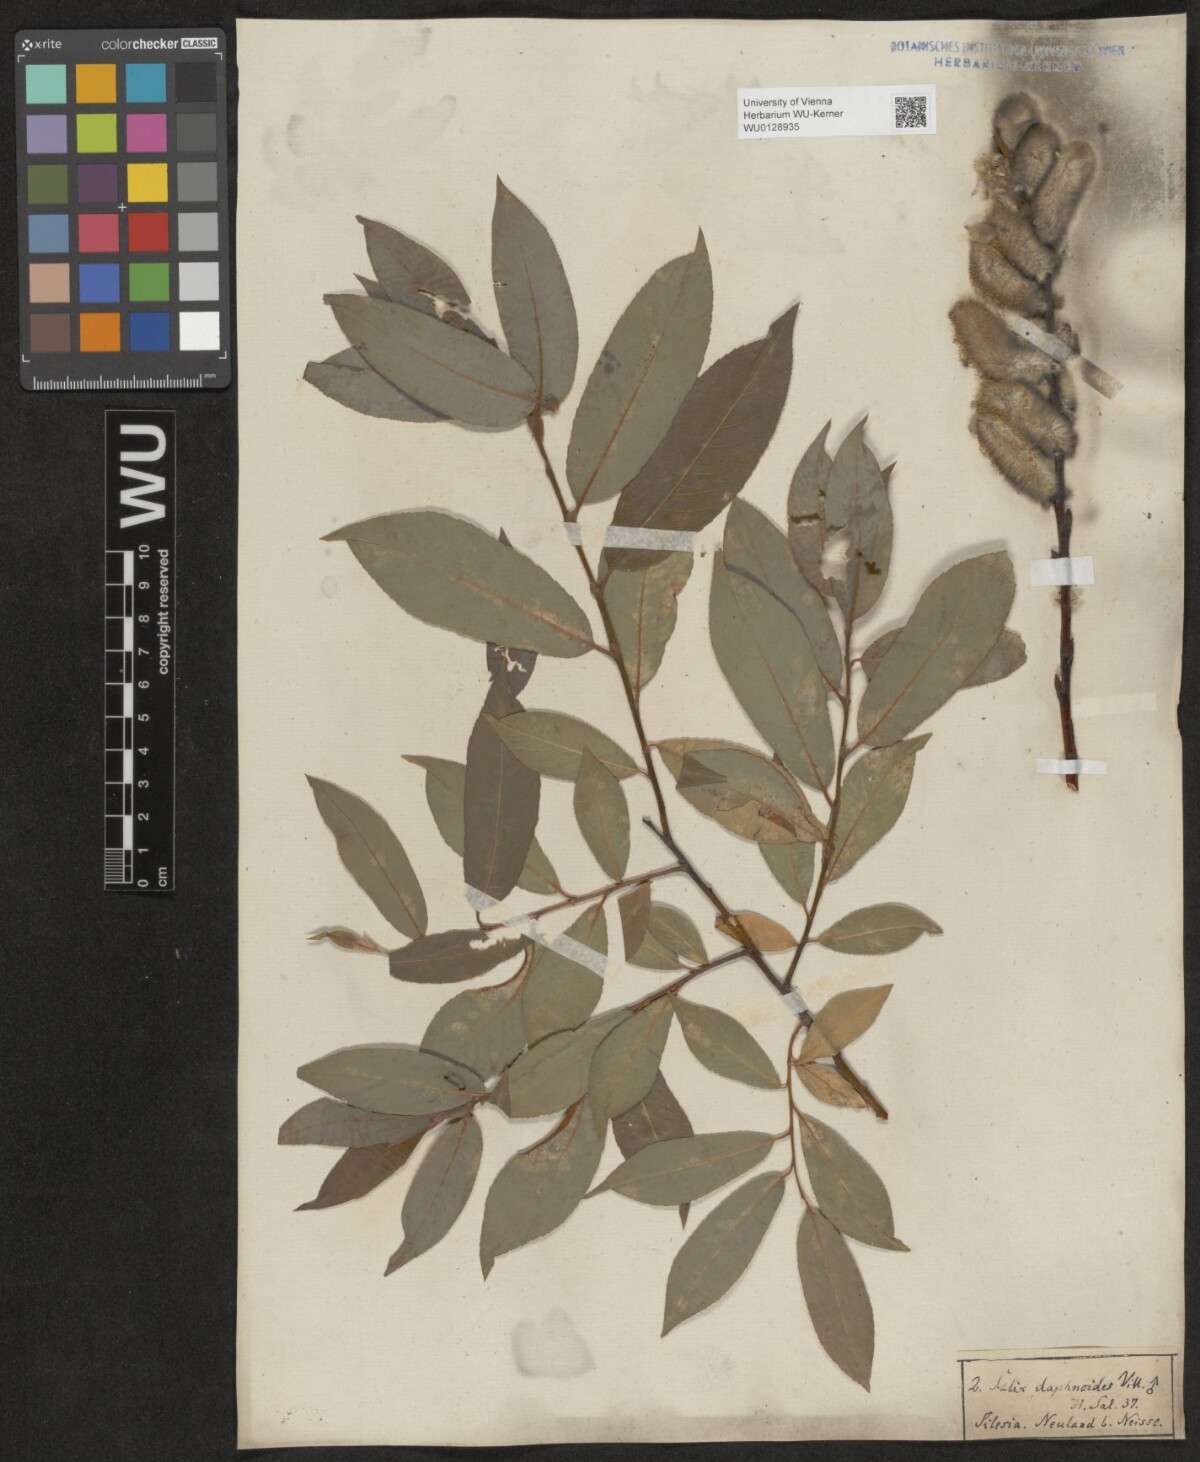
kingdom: Plantae
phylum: Tracheophyta
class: Magnoliopsida
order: Malpighiales
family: Salicaceae
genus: Salix
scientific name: Salix daphnoides
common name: European violet-willow
